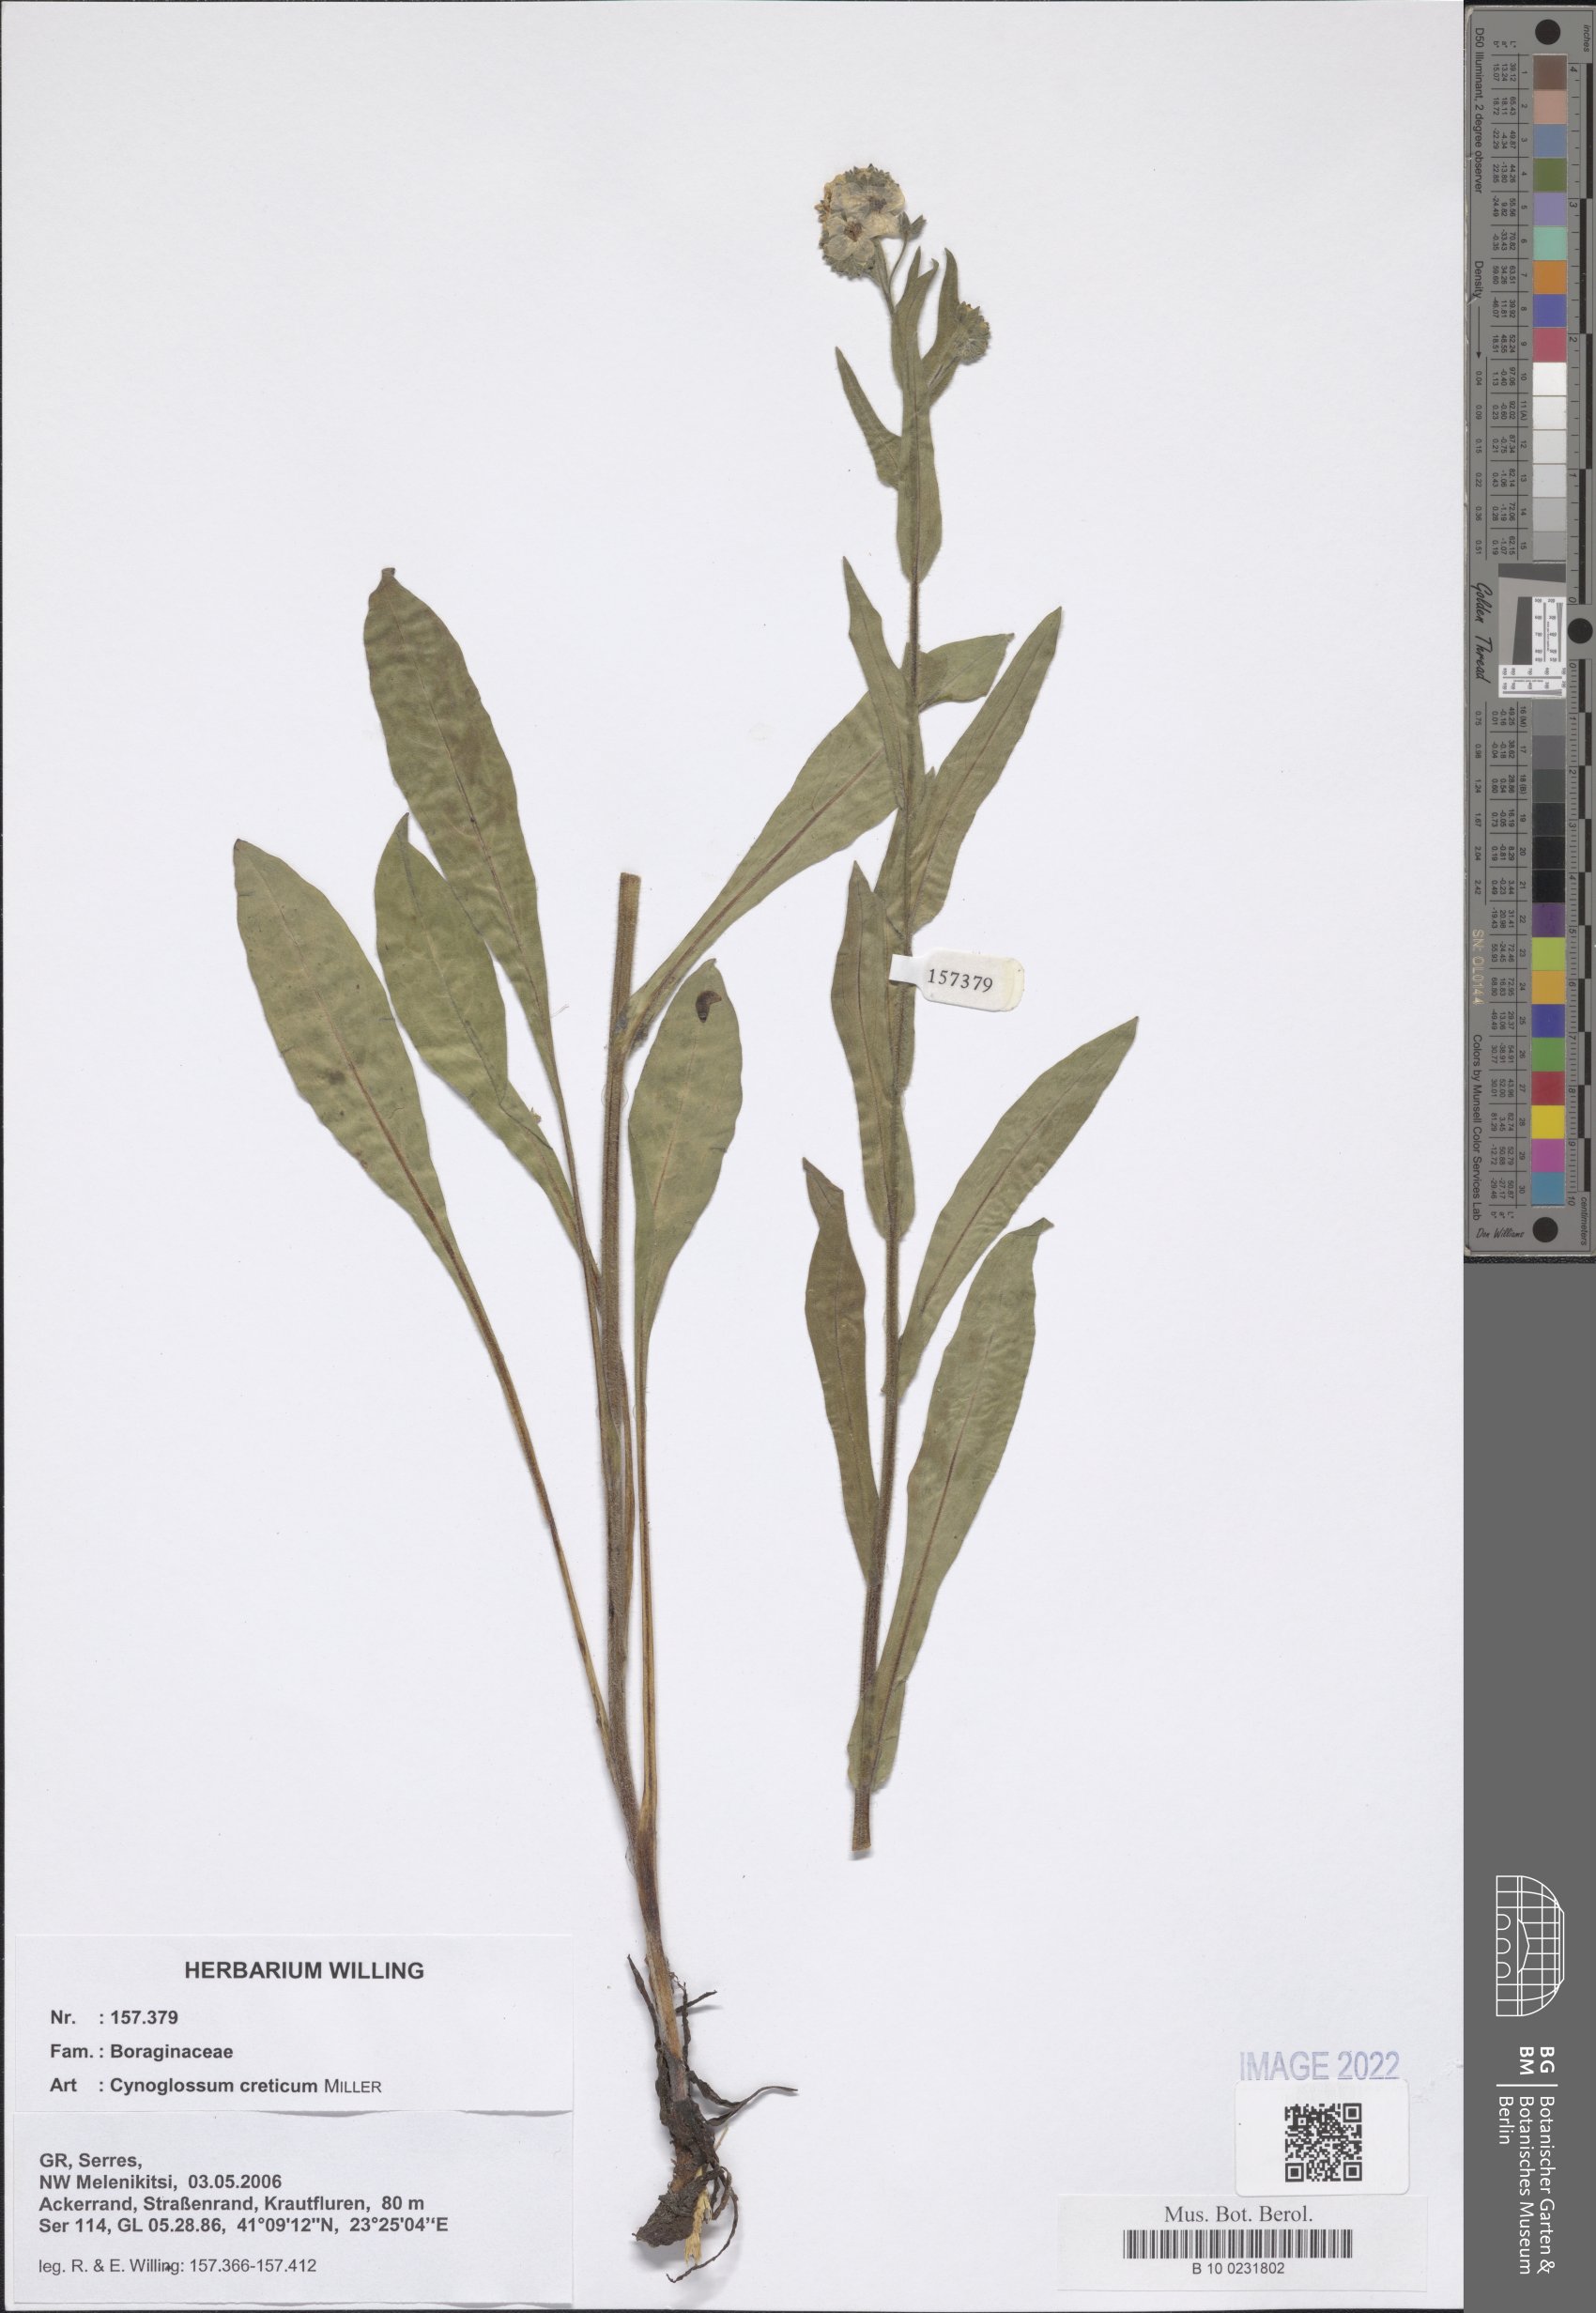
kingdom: Plantae
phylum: Tracheophyta
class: Magnoliopsida
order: Boraginales
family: Boraginaceae
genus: Cynoglossum
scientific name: Cynoglossum creticum
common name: Blue hound's tongue
